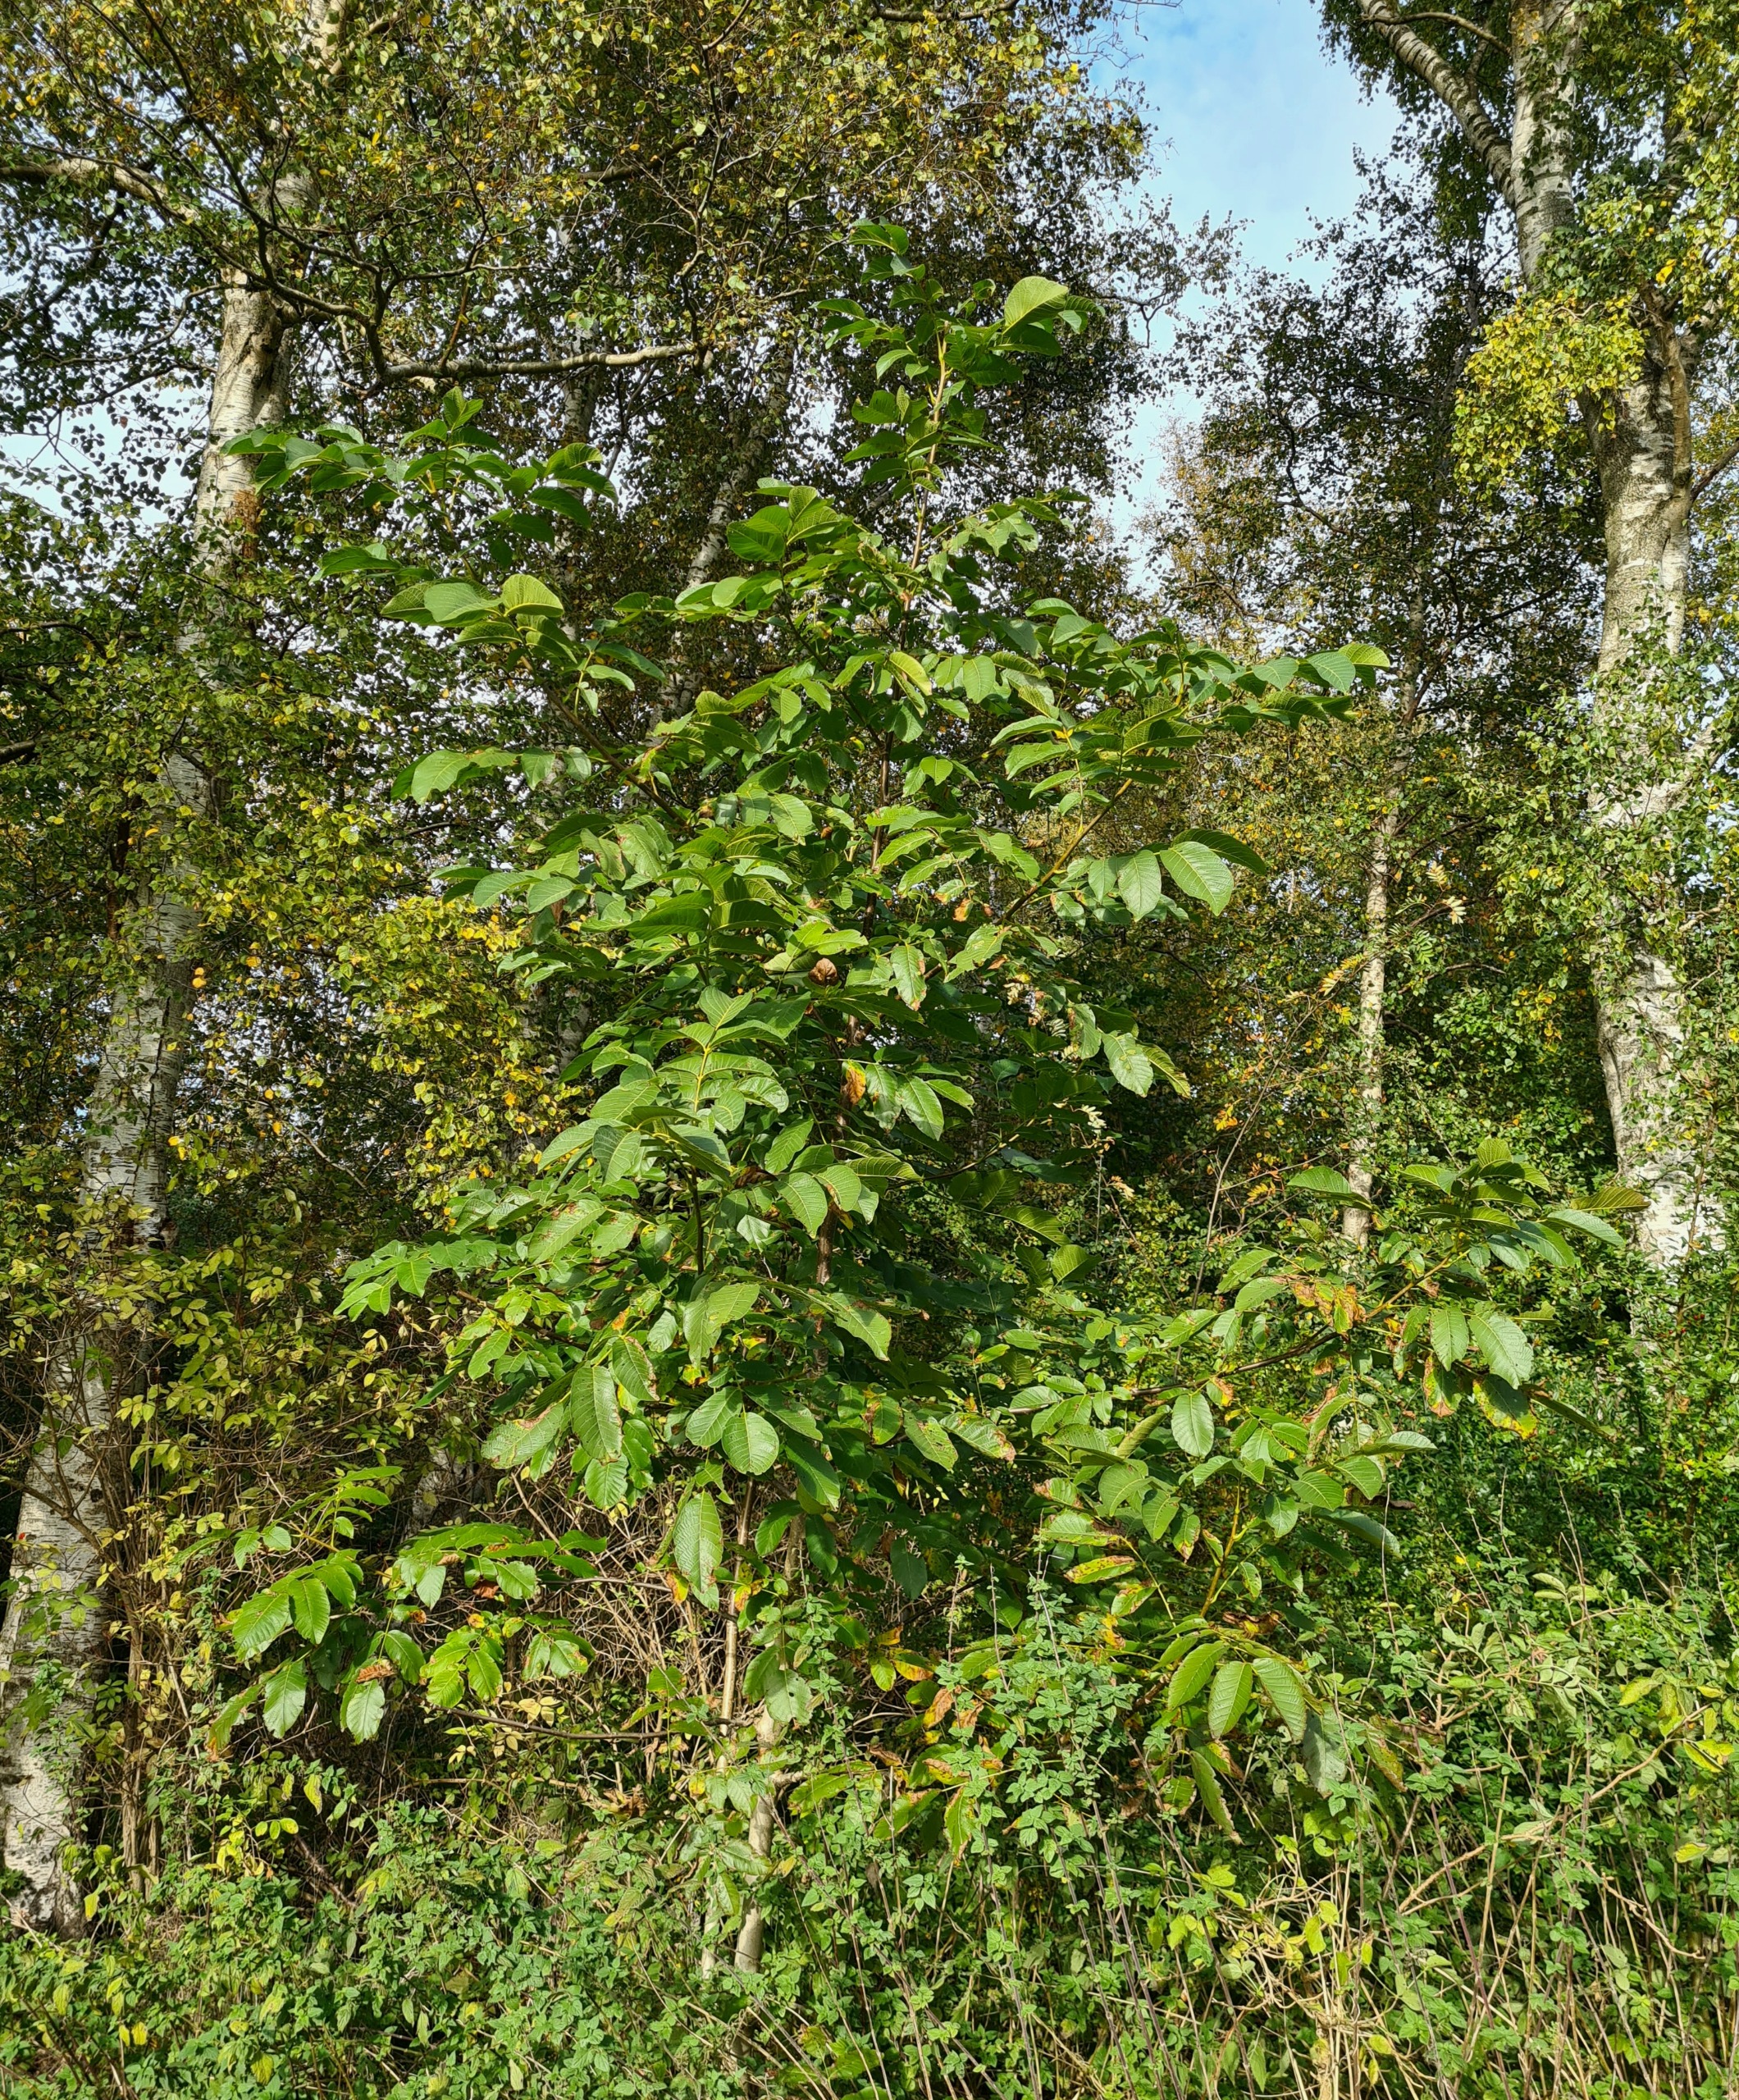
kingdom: Plantae
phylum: Tracheophyta
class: Magnoliopsida
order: Fagales
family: Juglandaceae
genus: Juglans
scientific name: Juglans regia
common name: Almindelig valnød
